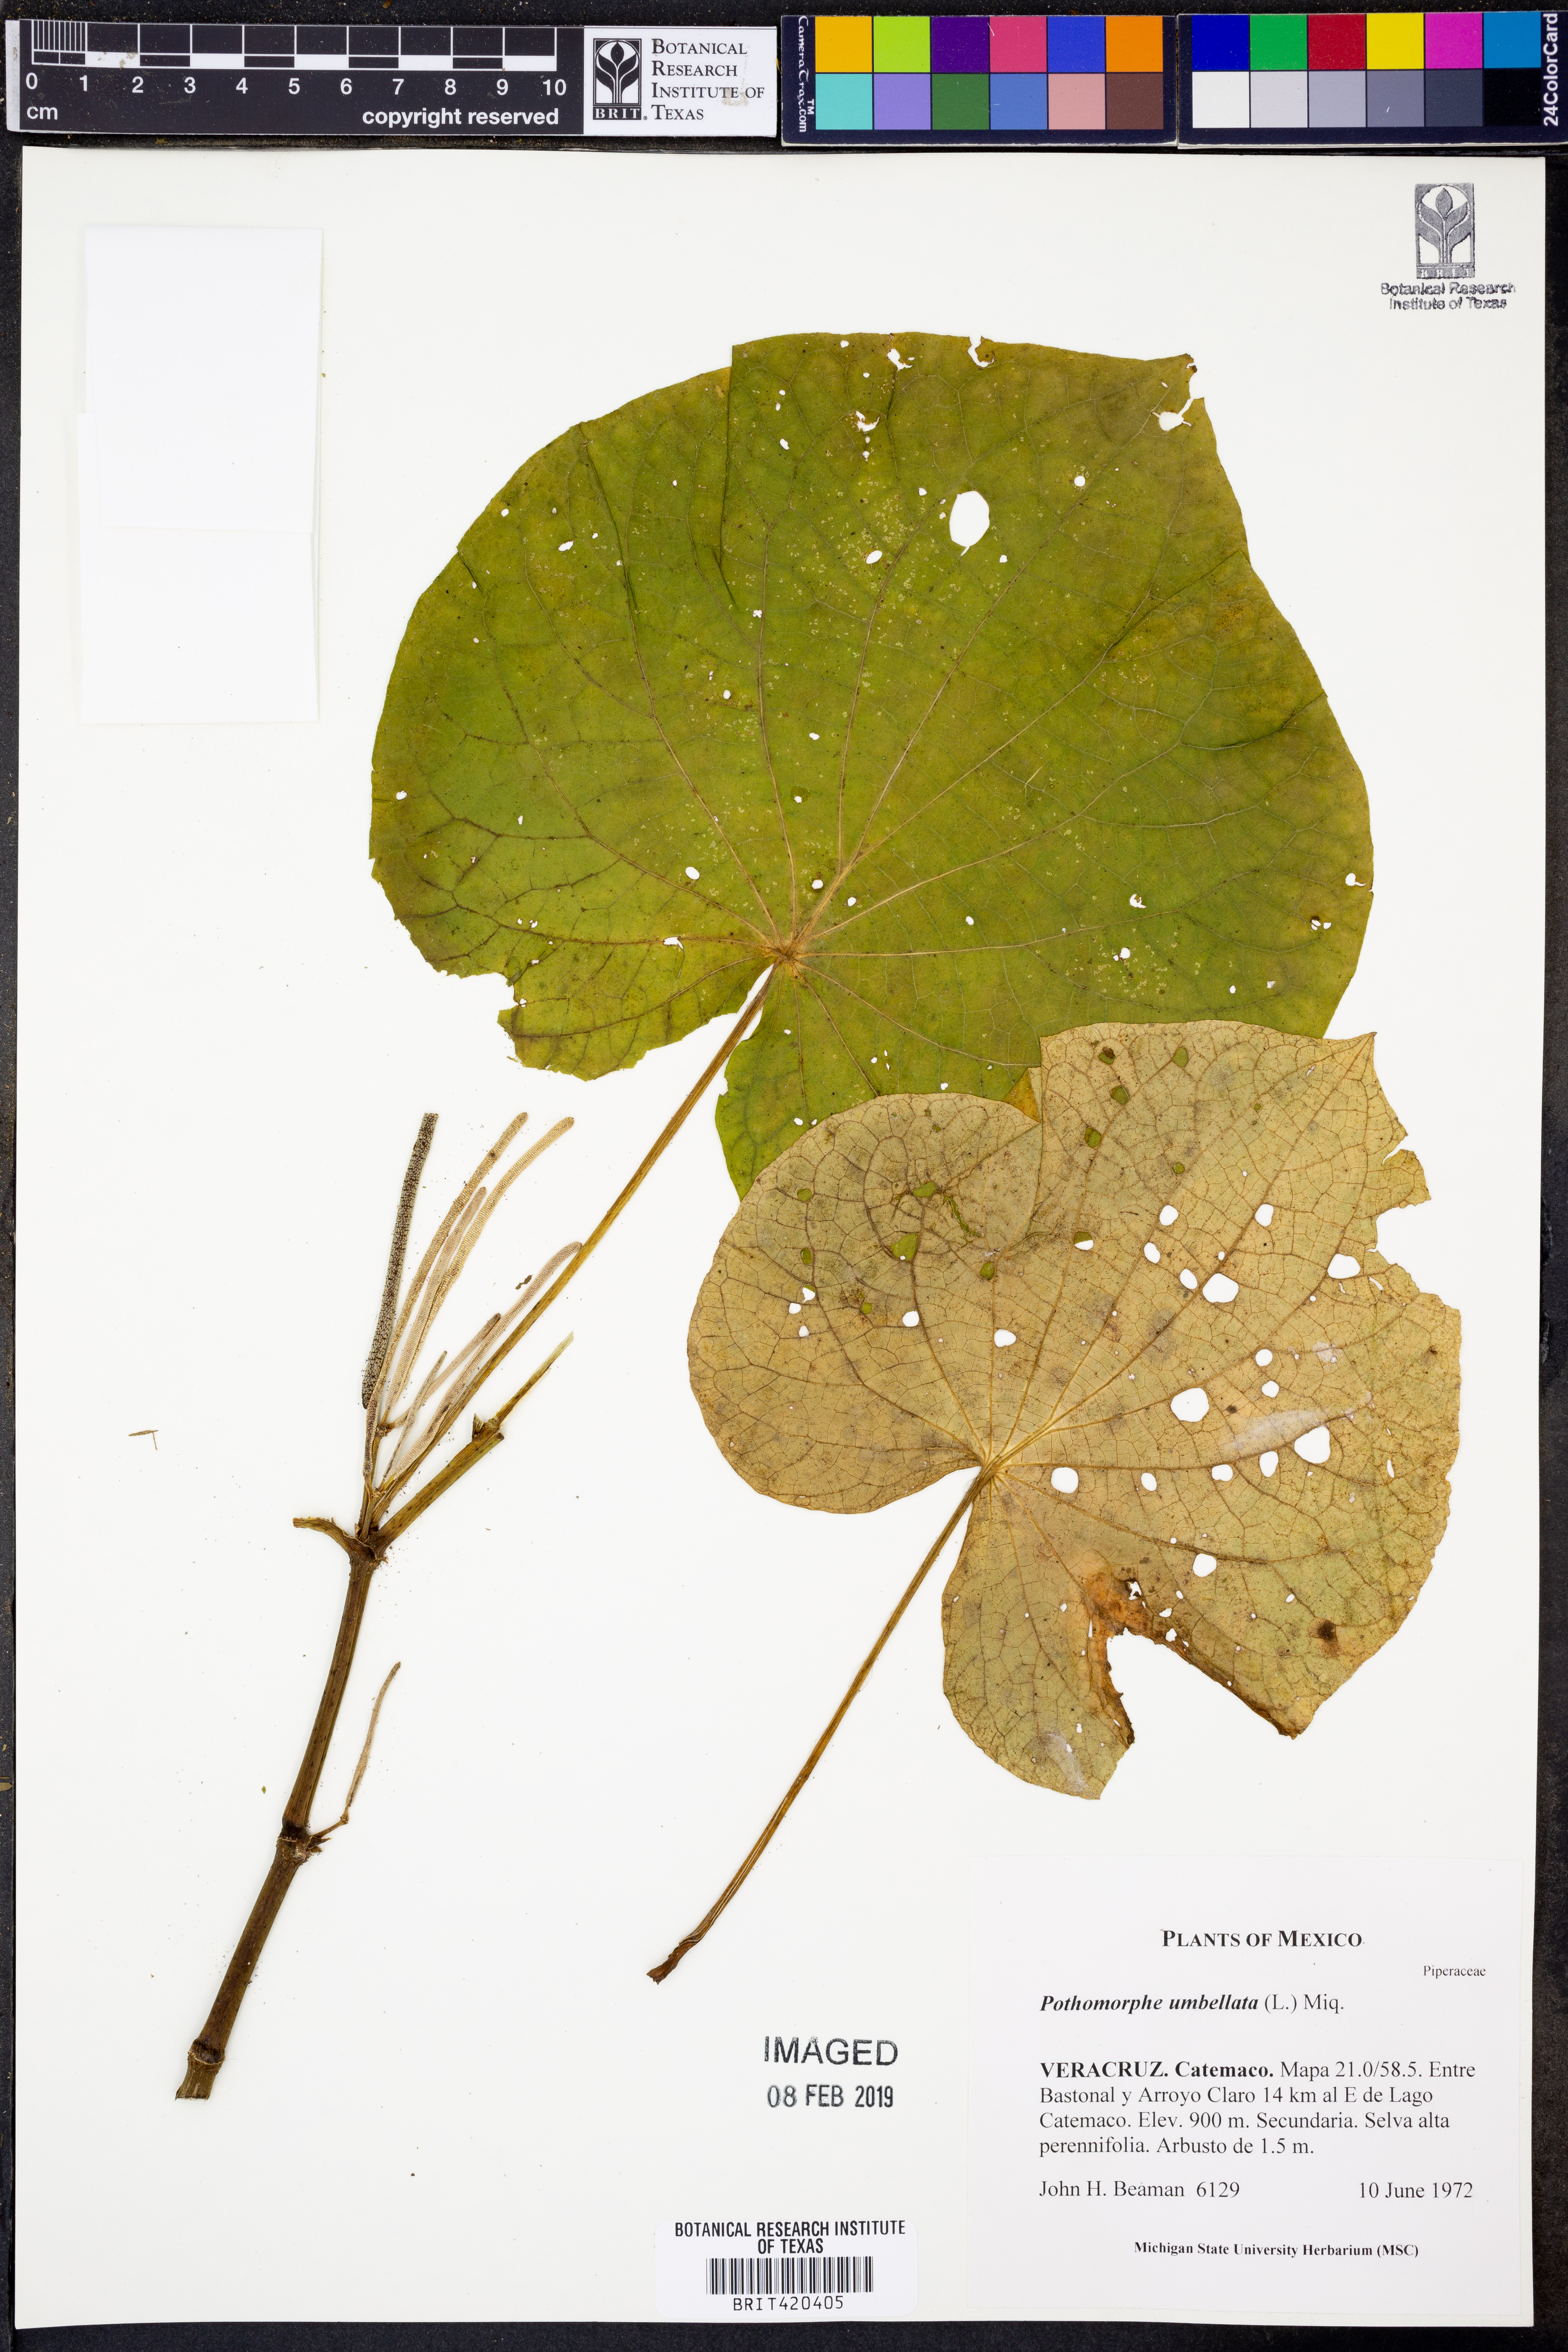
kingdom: Plantae
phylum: Tracheophyta
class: Magnoliopsida
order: Piperales
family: Piperaceae
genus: Piper
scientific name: Piper umbellatum
